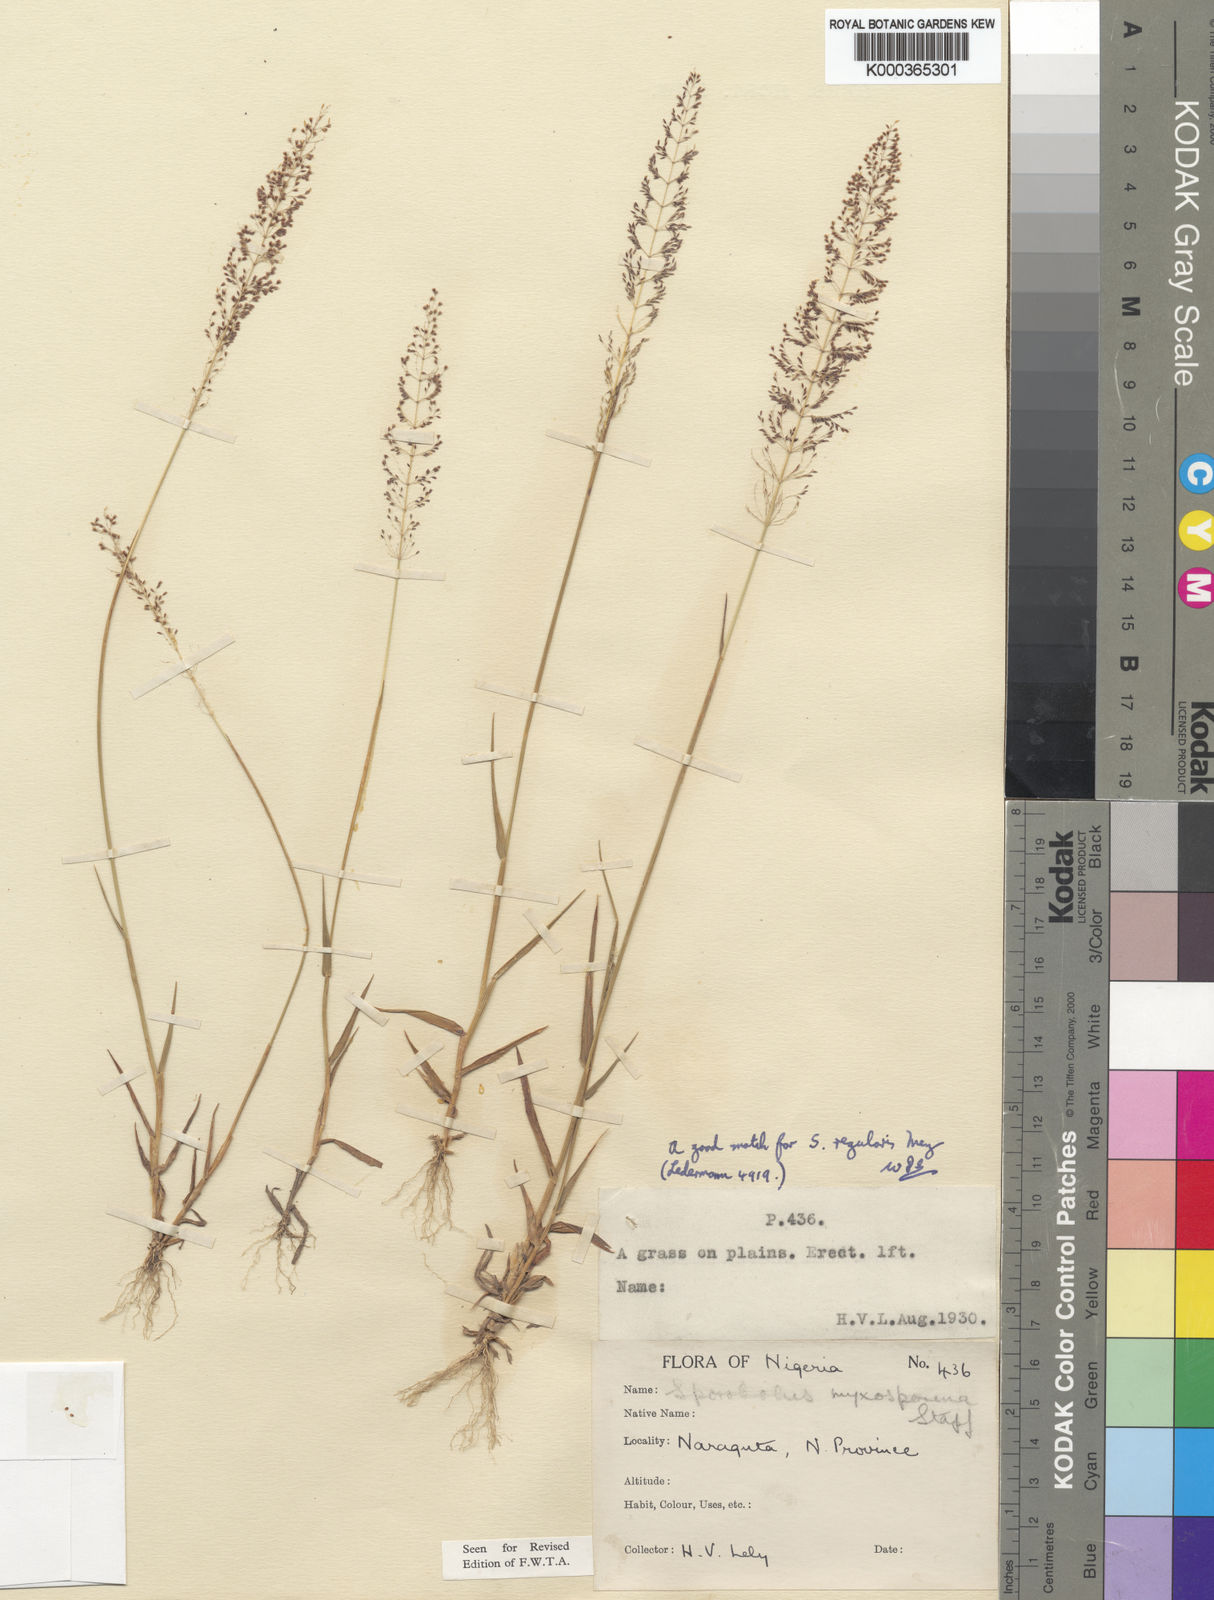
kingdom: Plantae
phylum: Tracheophyta
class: Liliopsida
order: Poales
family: Poaceae
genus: Sporobolus
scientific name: Sporobolus paniculatus
